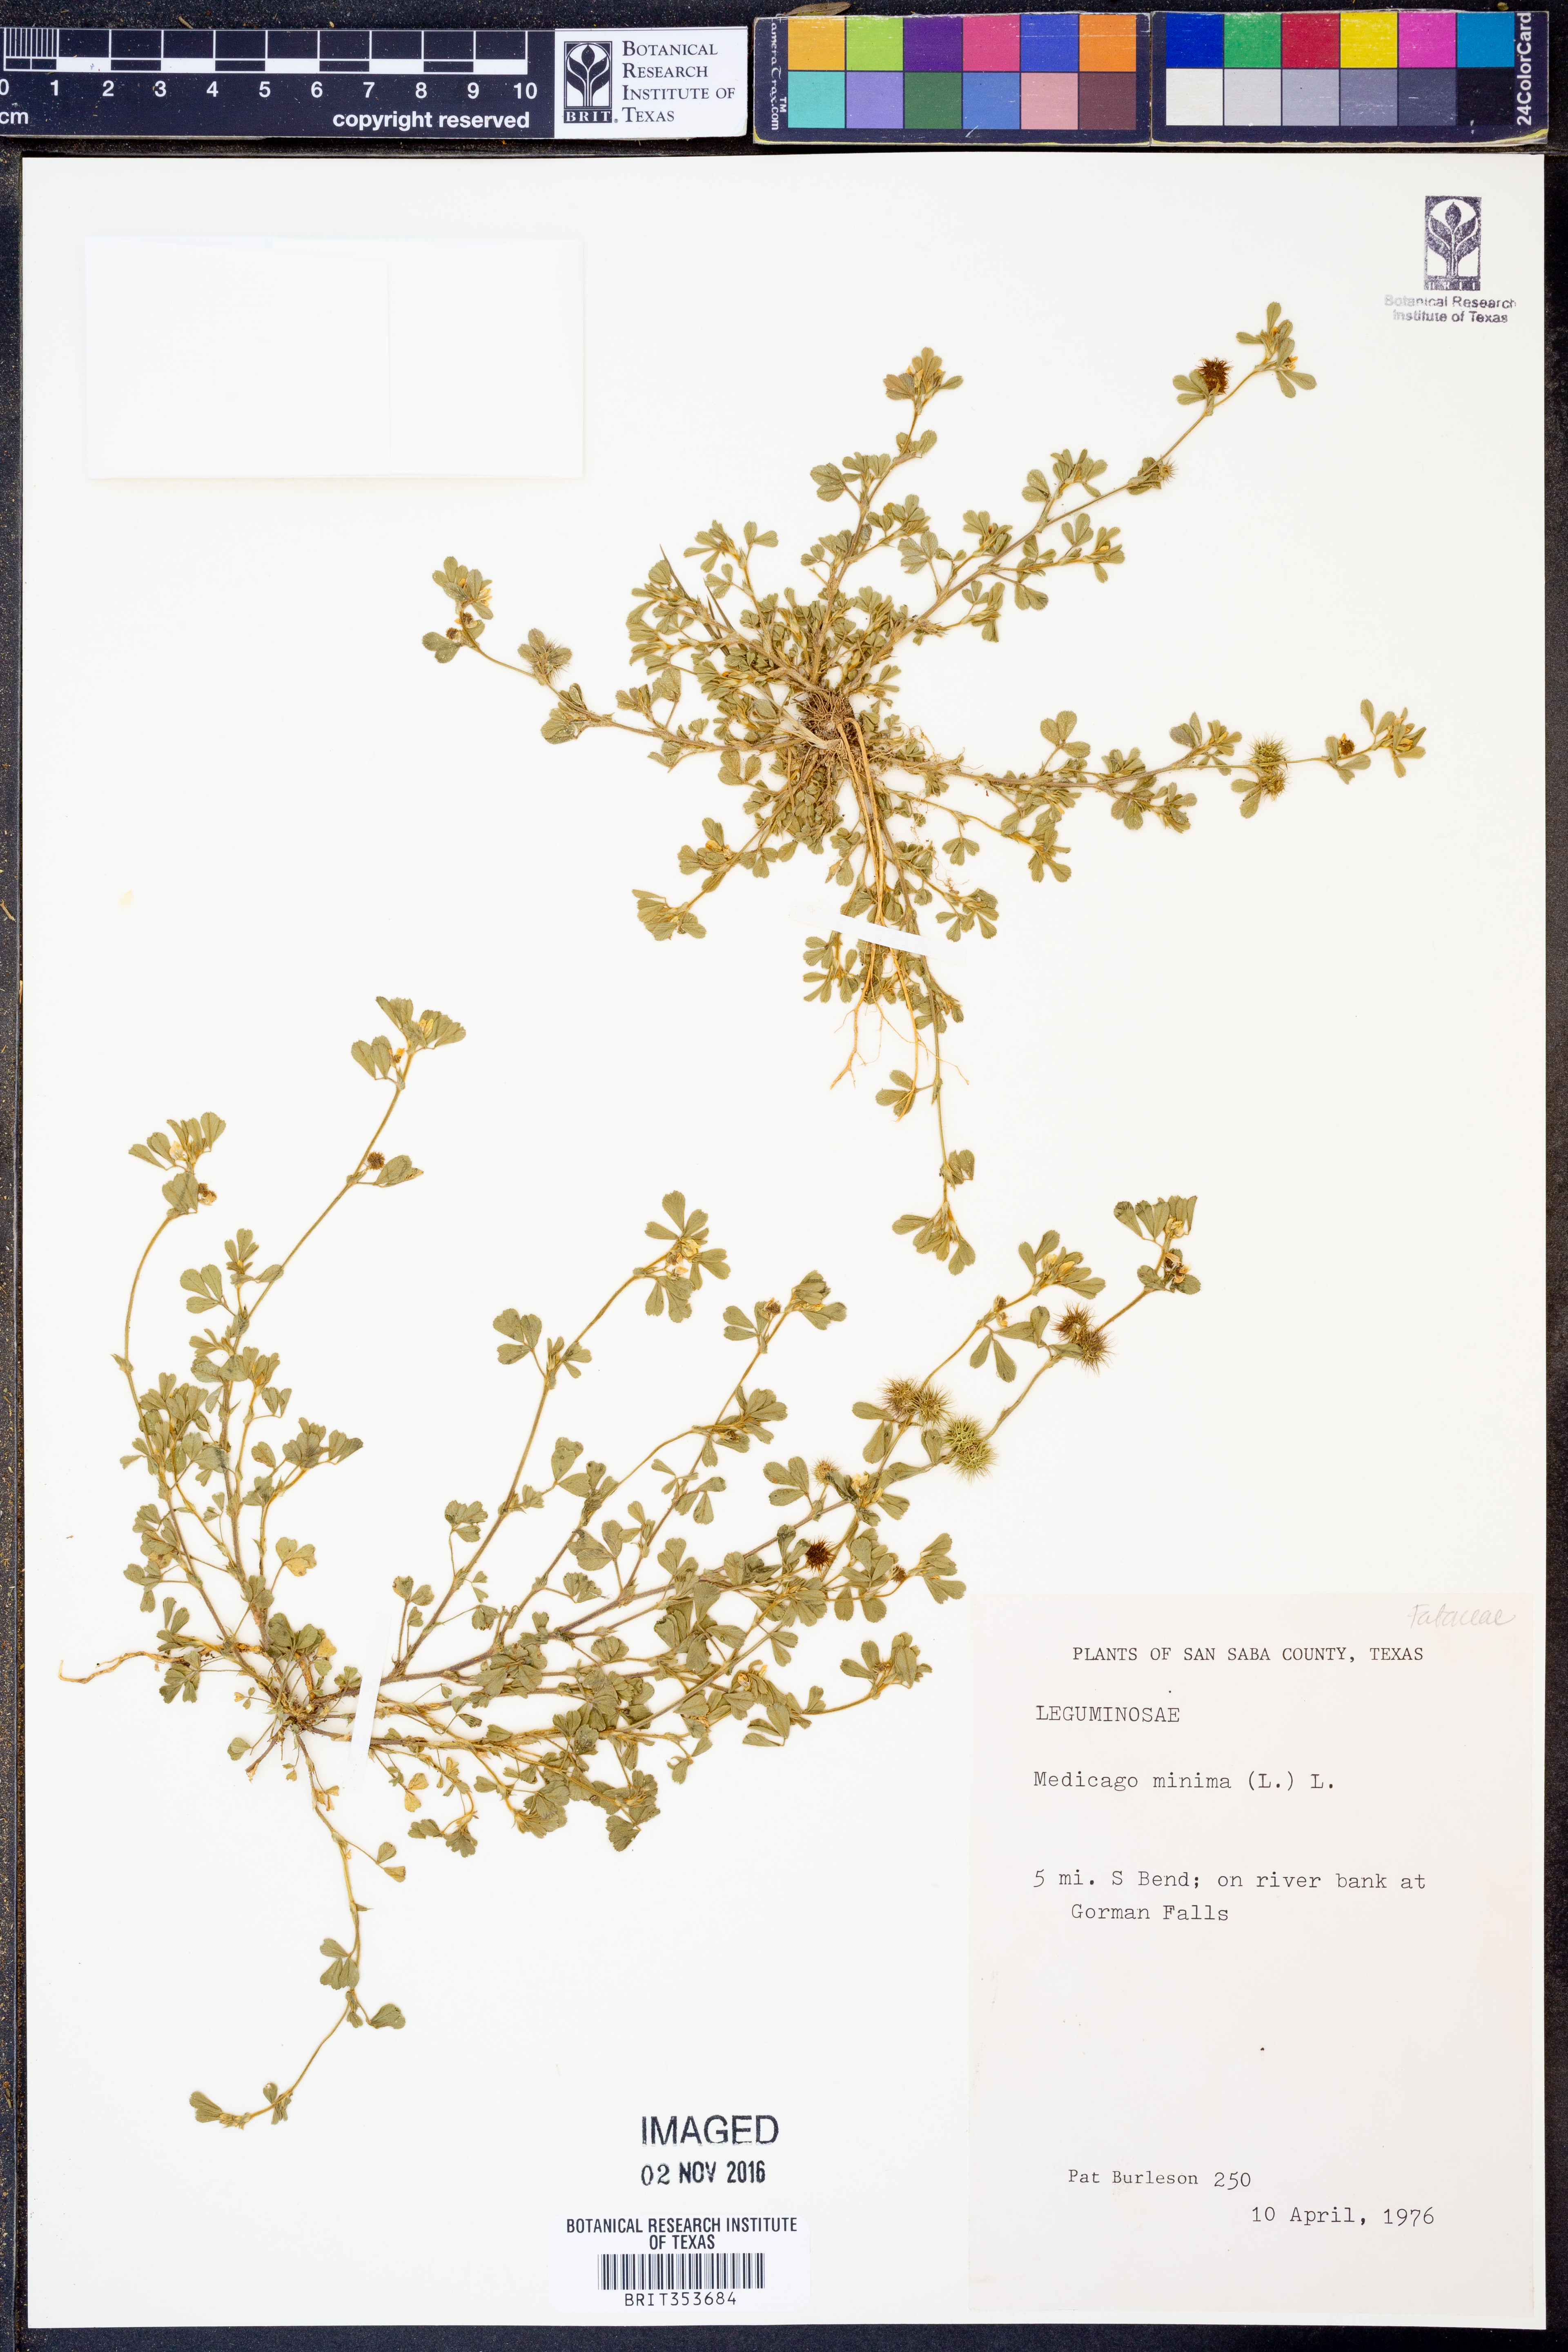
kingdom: Plantae
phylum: Tracheophyta
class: Magnoliopsida
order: Fabales
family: Fabaceae
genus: Medicago
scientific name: Medicago minima
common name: Little bur-clover
